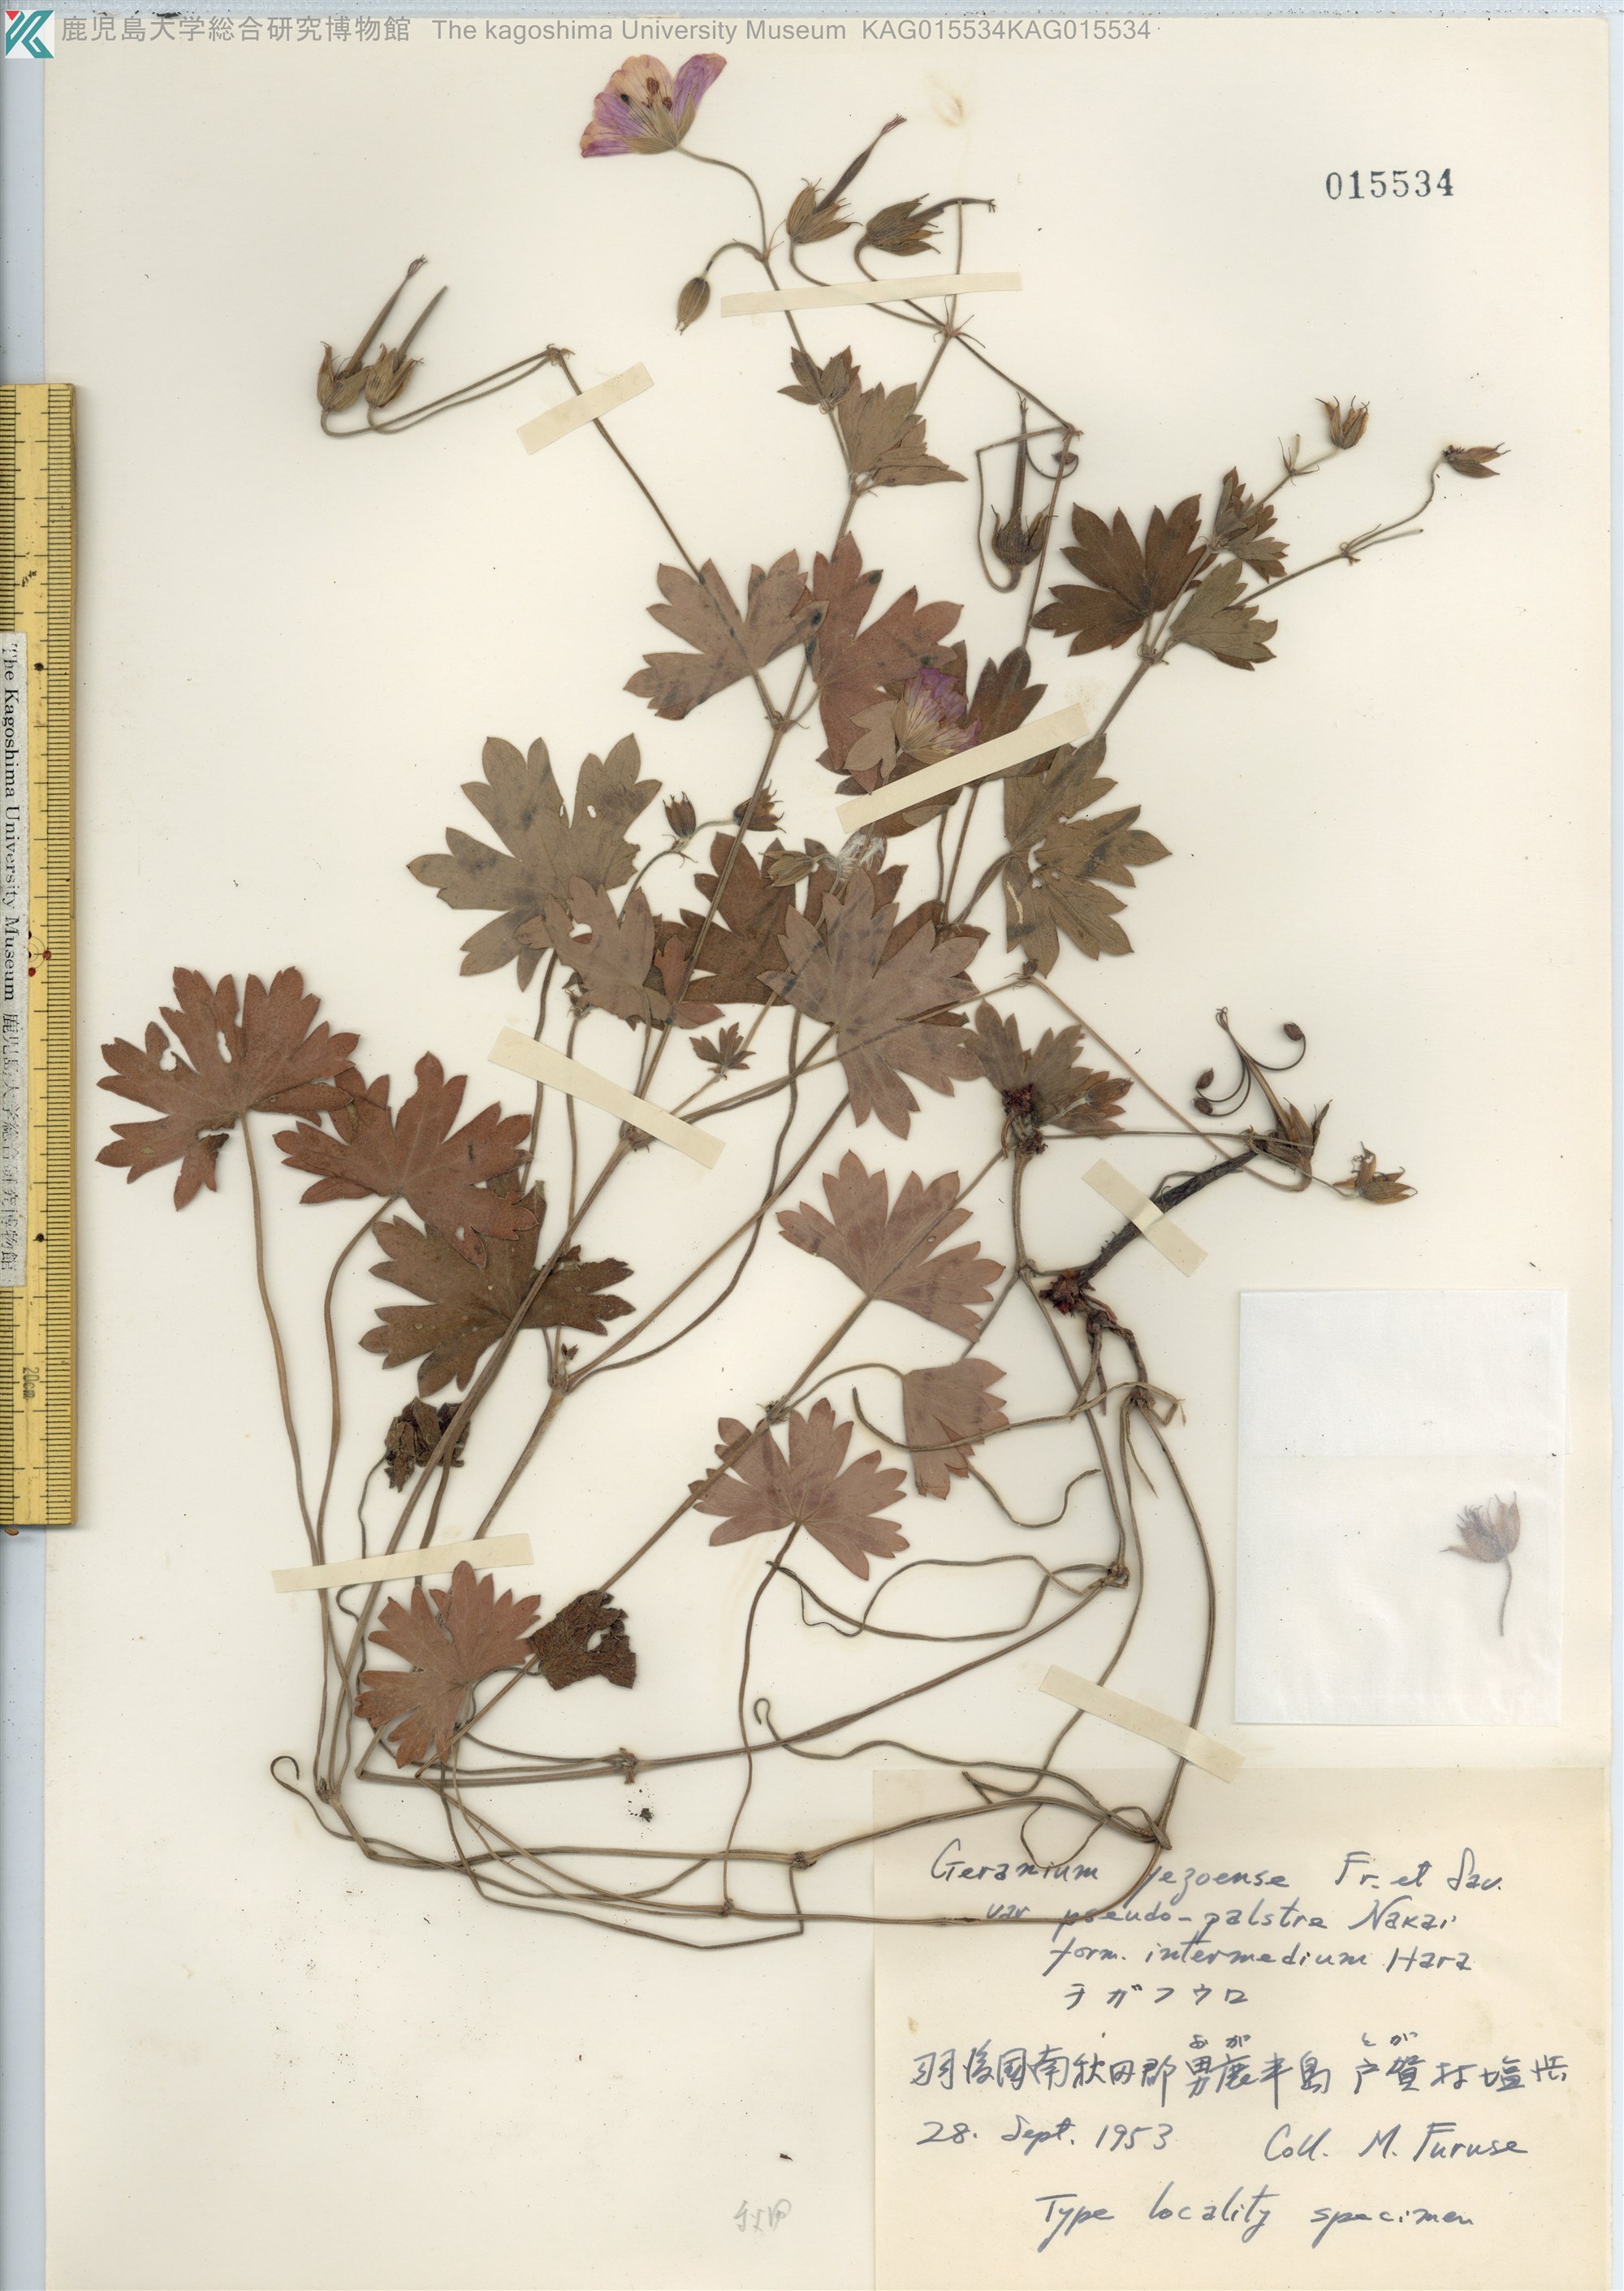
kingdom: Plantae
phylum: Tracheophyta
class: Magnoliopsida
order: Geraniales
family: Geraniaceae
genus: Geranium
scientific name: Geranium yesoense
